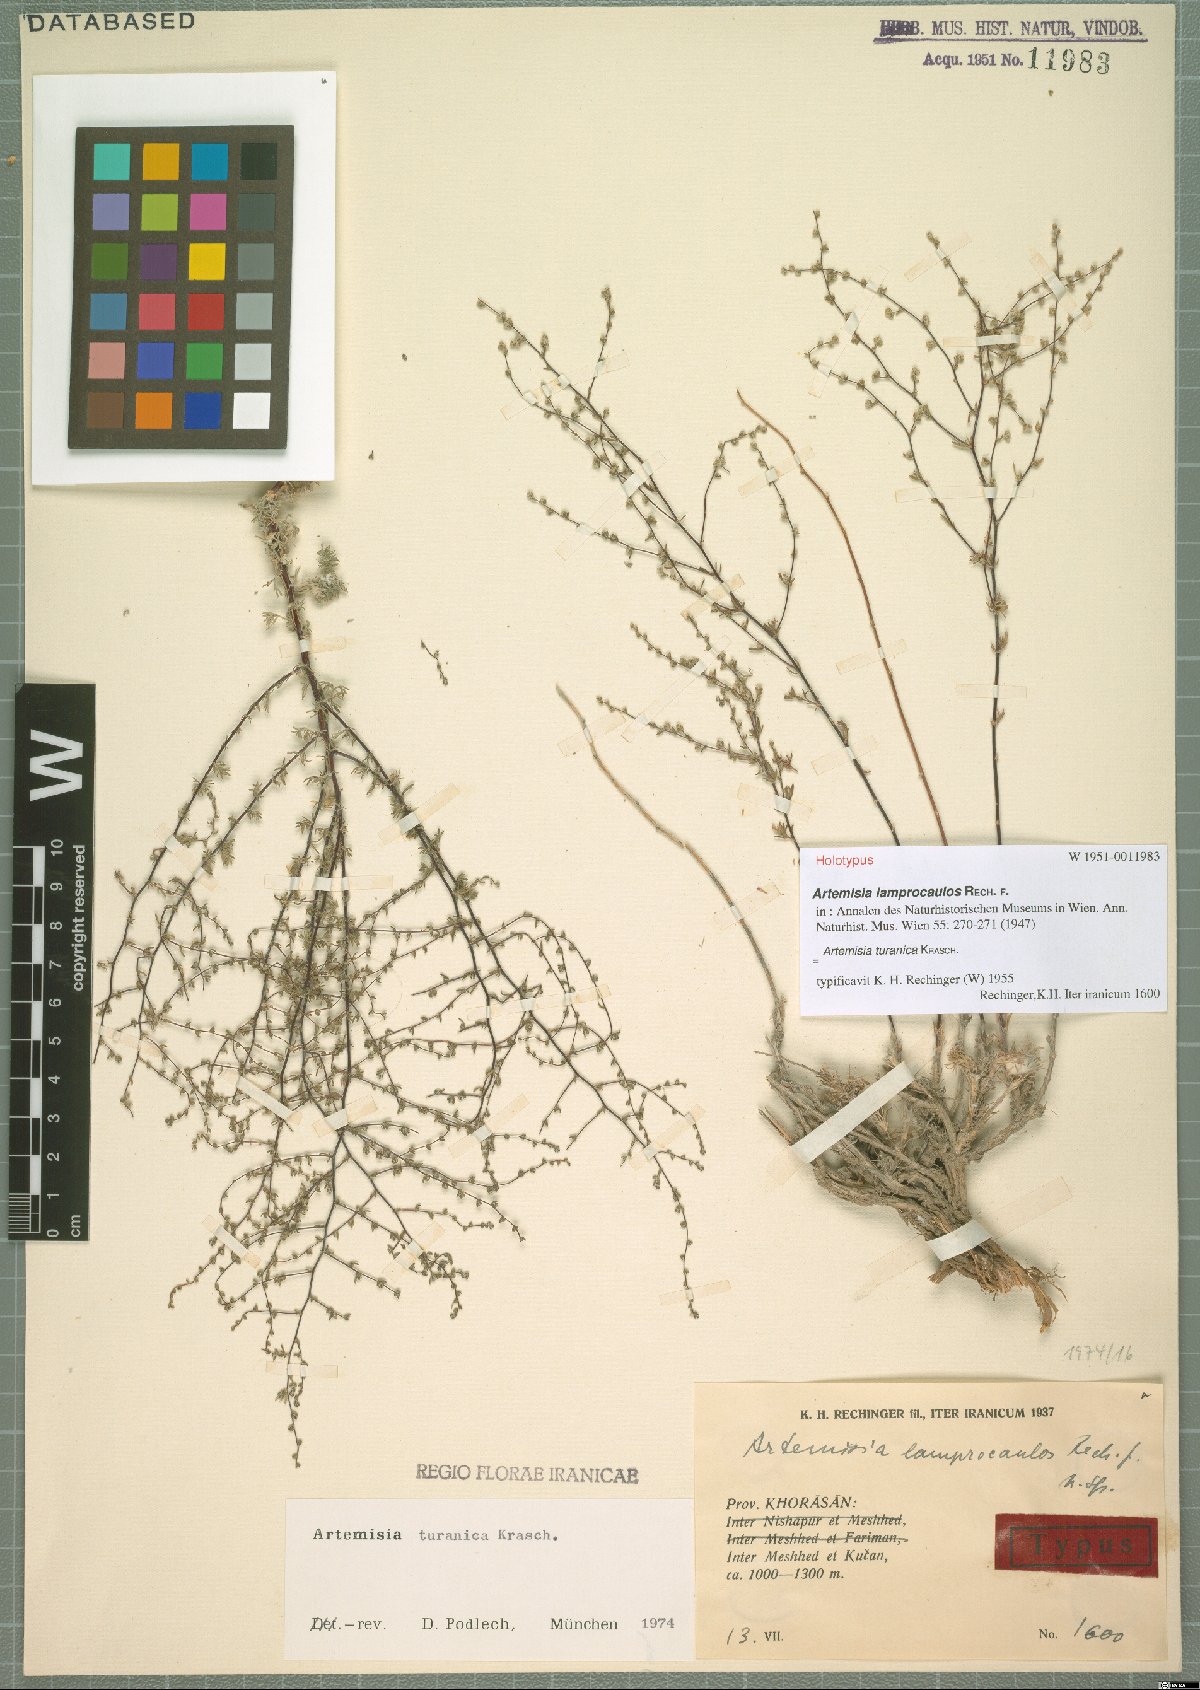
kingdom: Plantae
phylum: Tracheophyta
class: Magnoliopsida
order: Asterales
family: Asteraceae
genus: Artemisia
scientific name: Artemisia turanica
